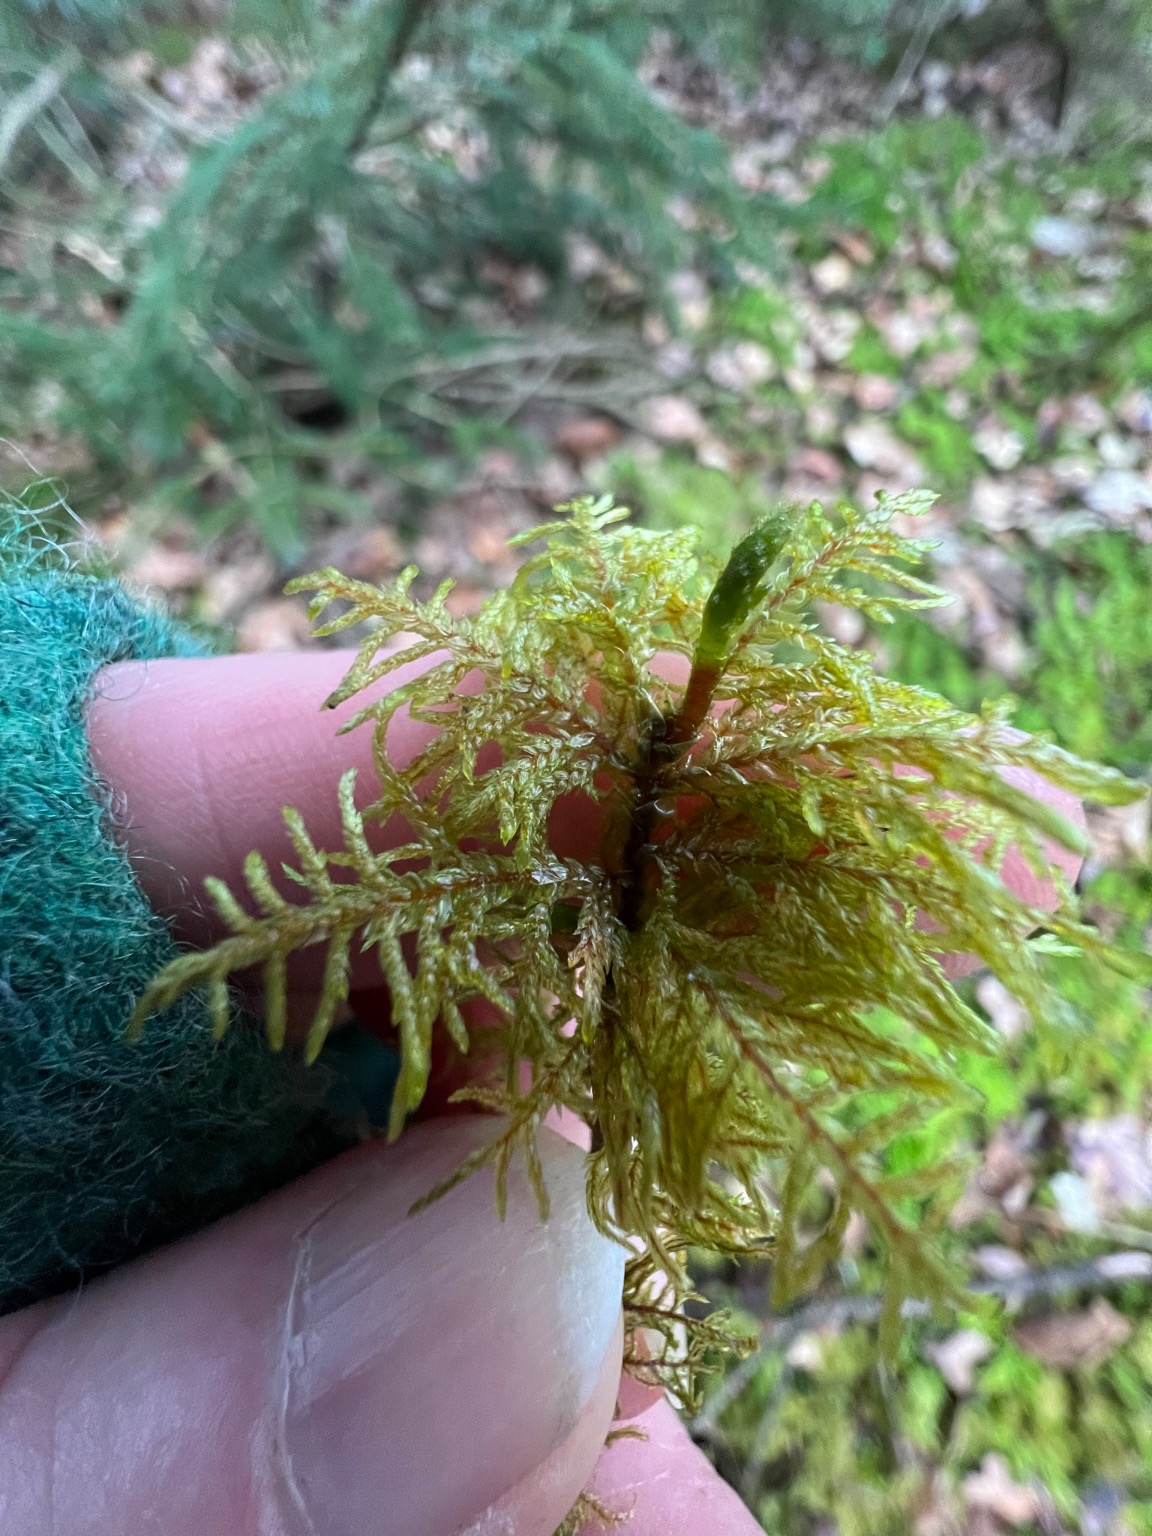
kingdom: Plantae
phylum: Bryophyta
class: Bryopsida
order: Hypnales
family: Hylocomiaceae
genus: Hylocomium
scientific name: Hylocomium splendens
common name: Almindelig etagemos
